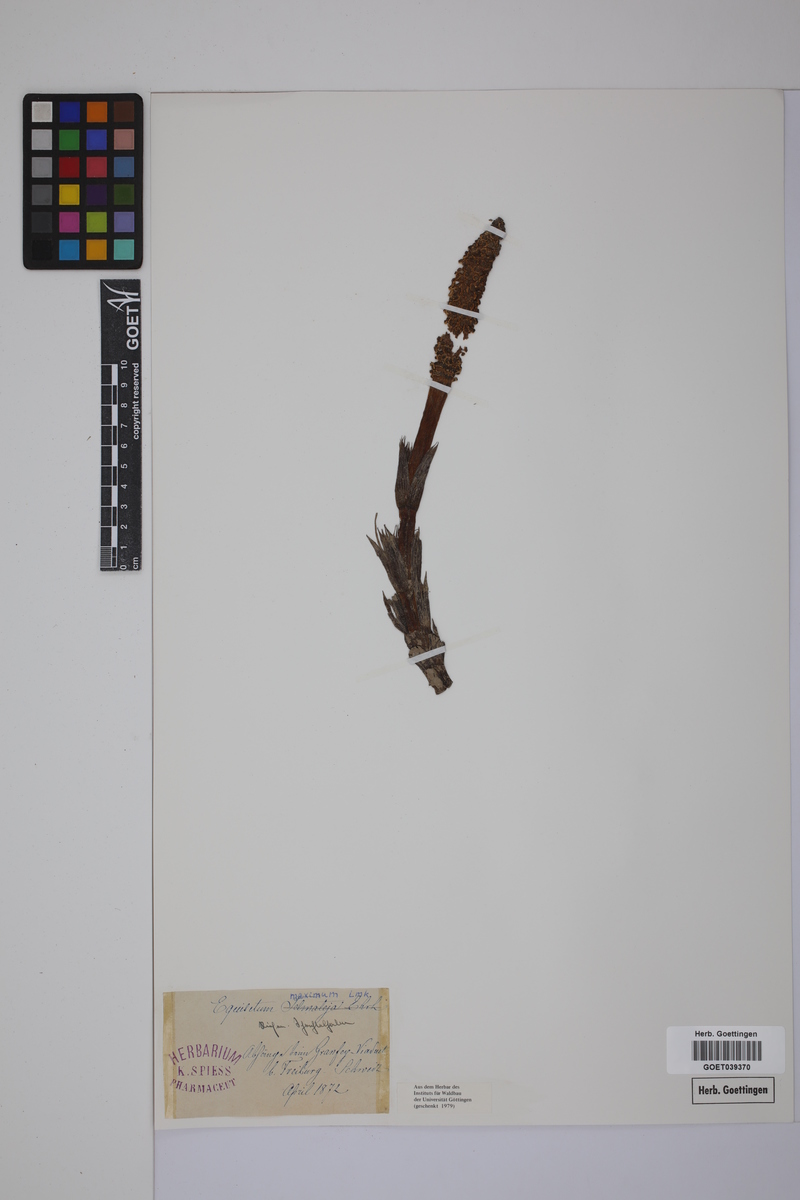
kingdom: Plantae
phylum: Tracheophyta
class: Polypodiopsida
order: Equisetales
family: Equisetaceae
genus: Equisetum
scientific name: Equisetum telmateia
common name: Great horsetail
